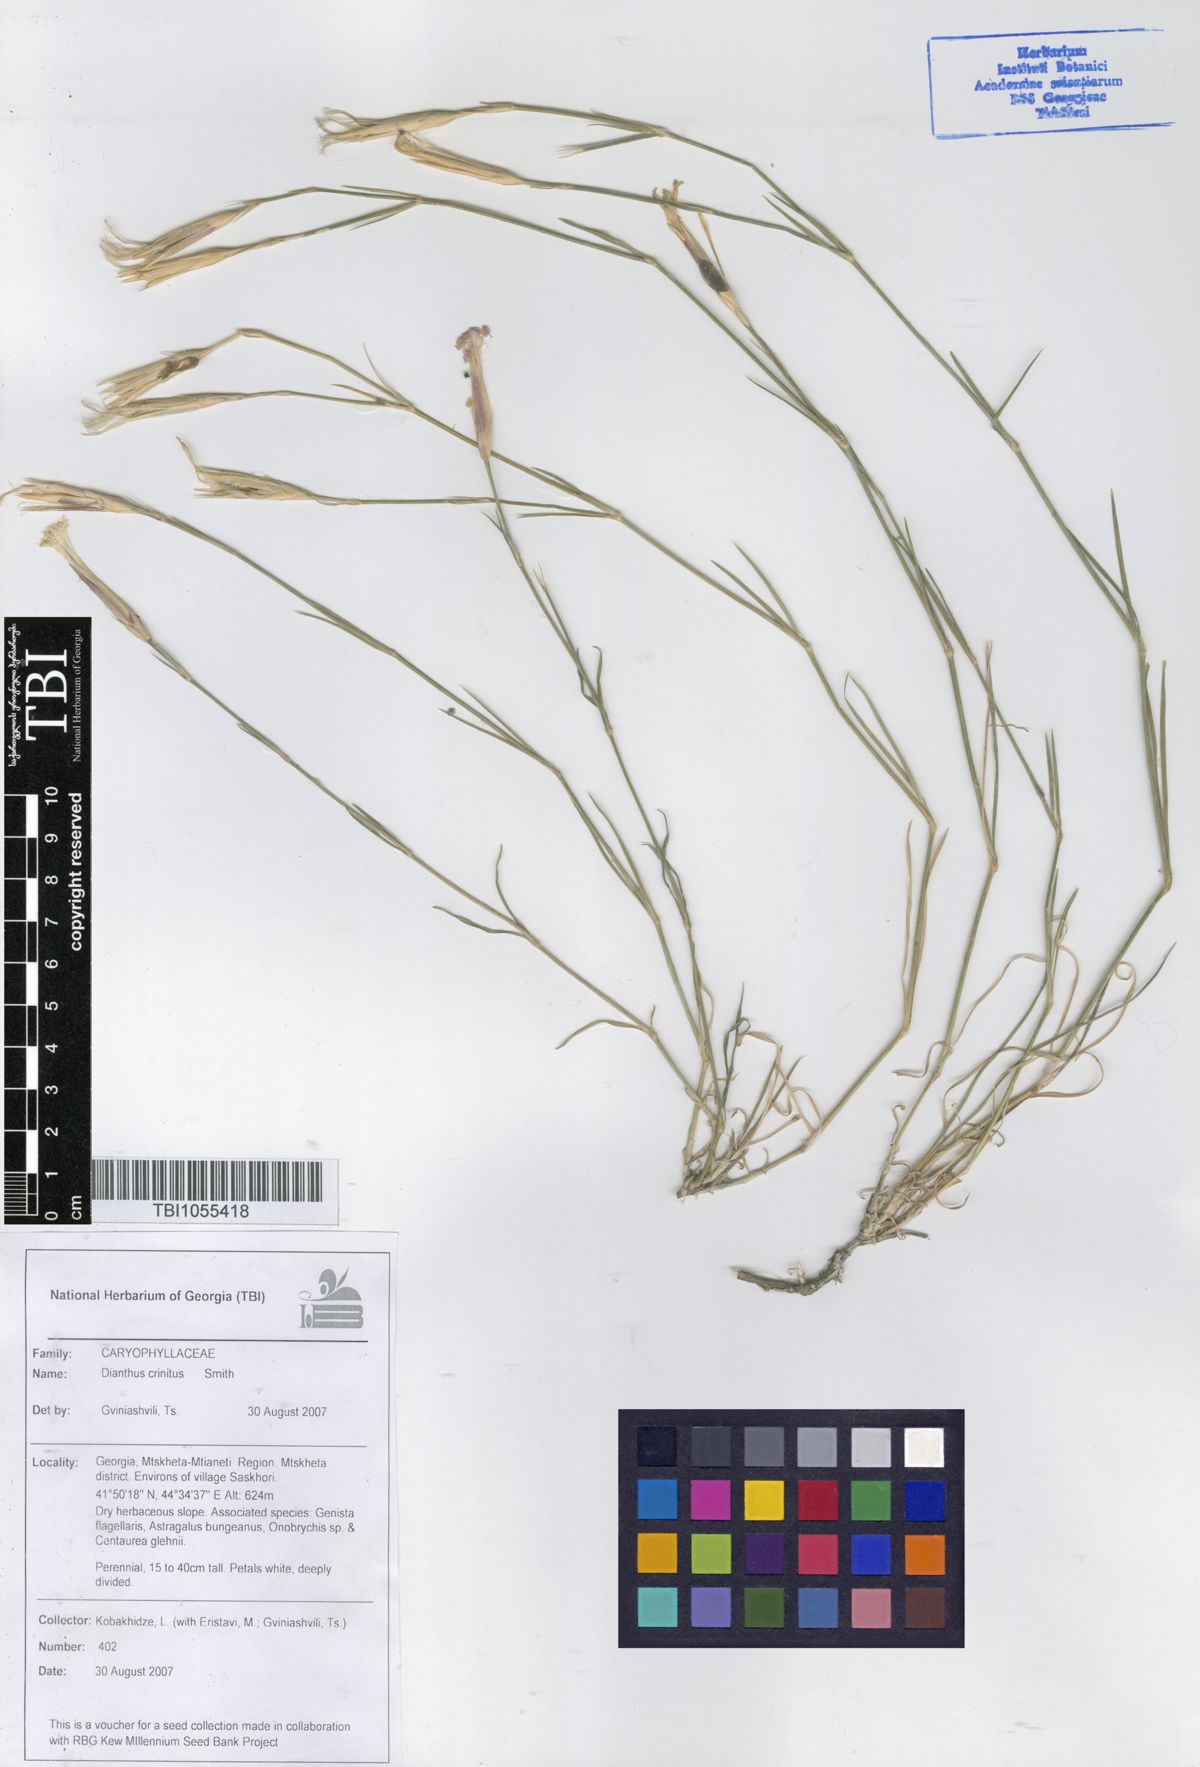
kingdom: Plantae
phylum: Tracheophyta
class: Magnoliopsida
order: Caryophyllales
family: Caryophyllaceae
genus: Dianthus
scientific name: Dianthus crinitus
